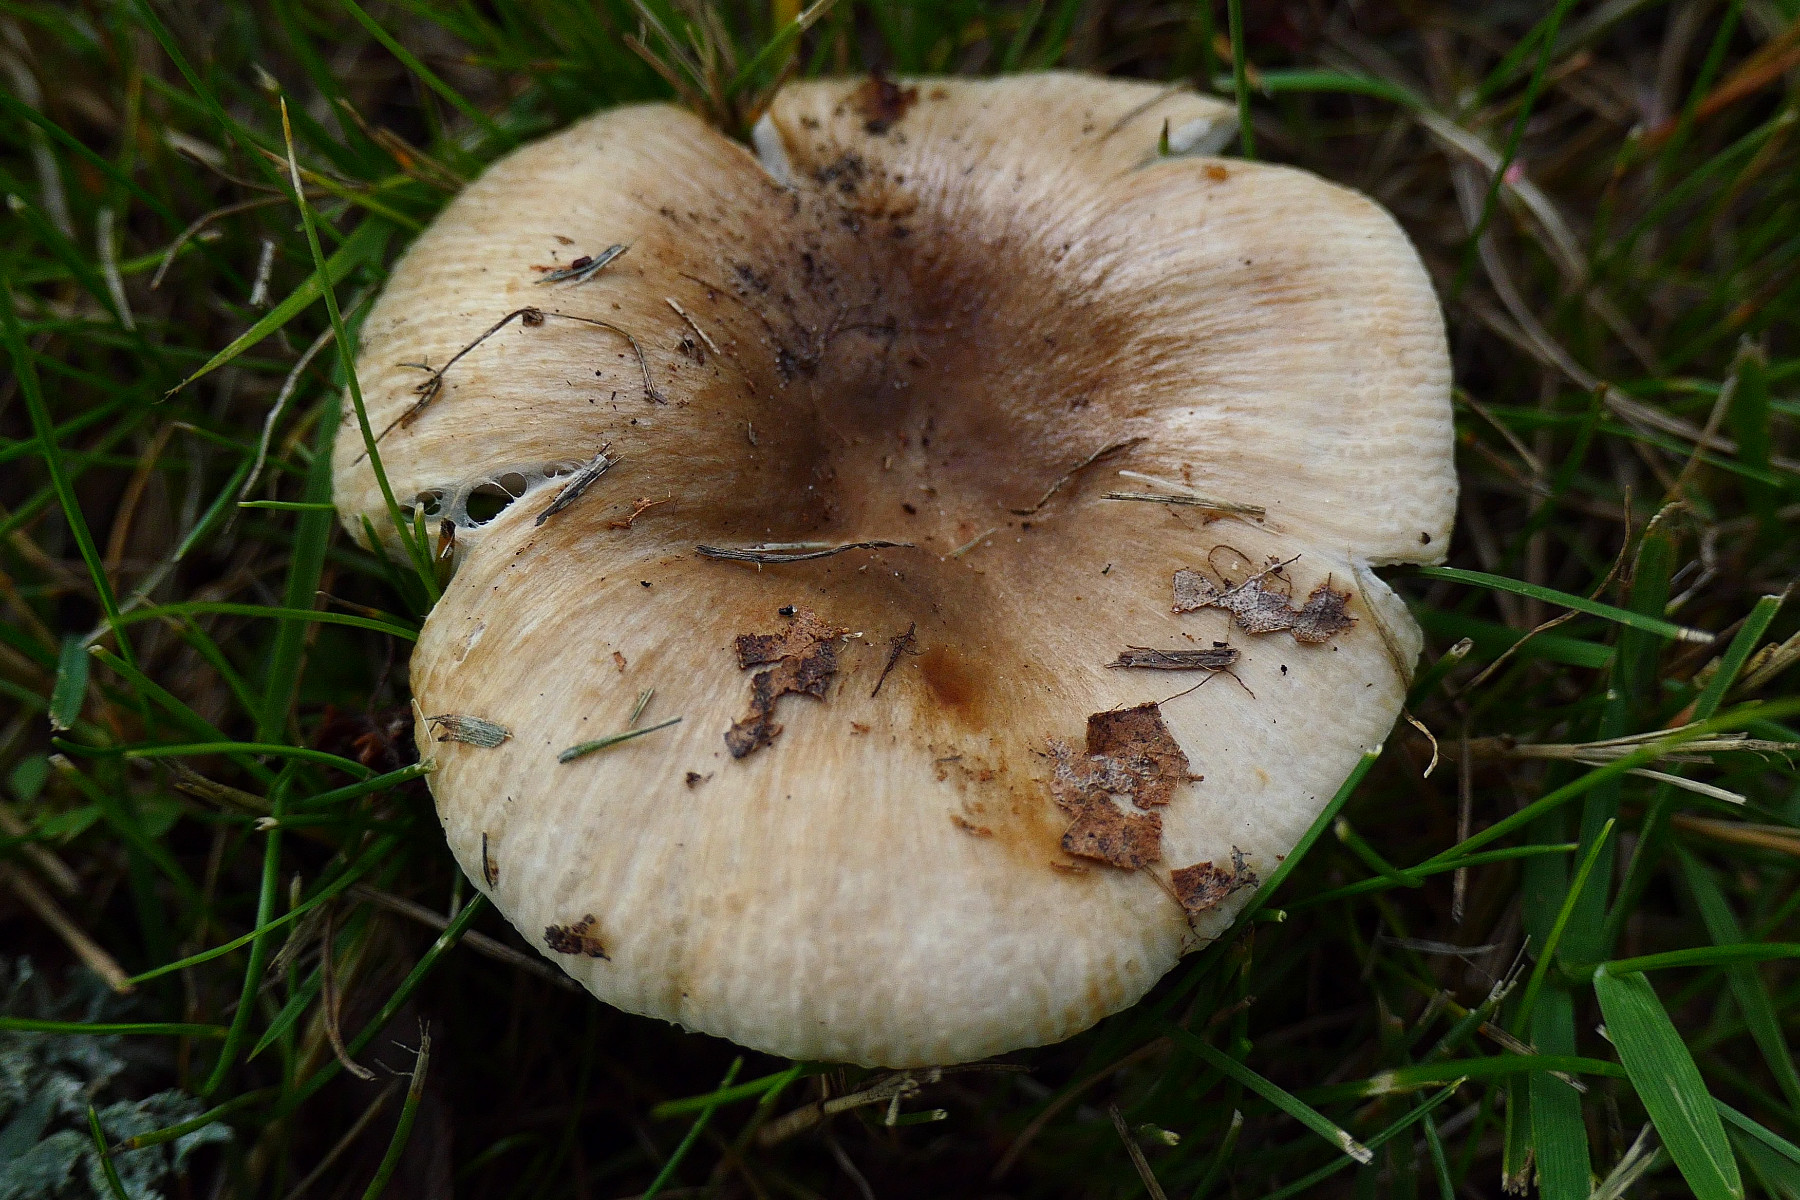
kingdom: Fungi
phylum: Basidiomycota
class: Agaricomycetes
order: Russulales
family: Russulaceae
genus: Russula
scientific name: Russula recondita
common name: mild kam-skørhat
